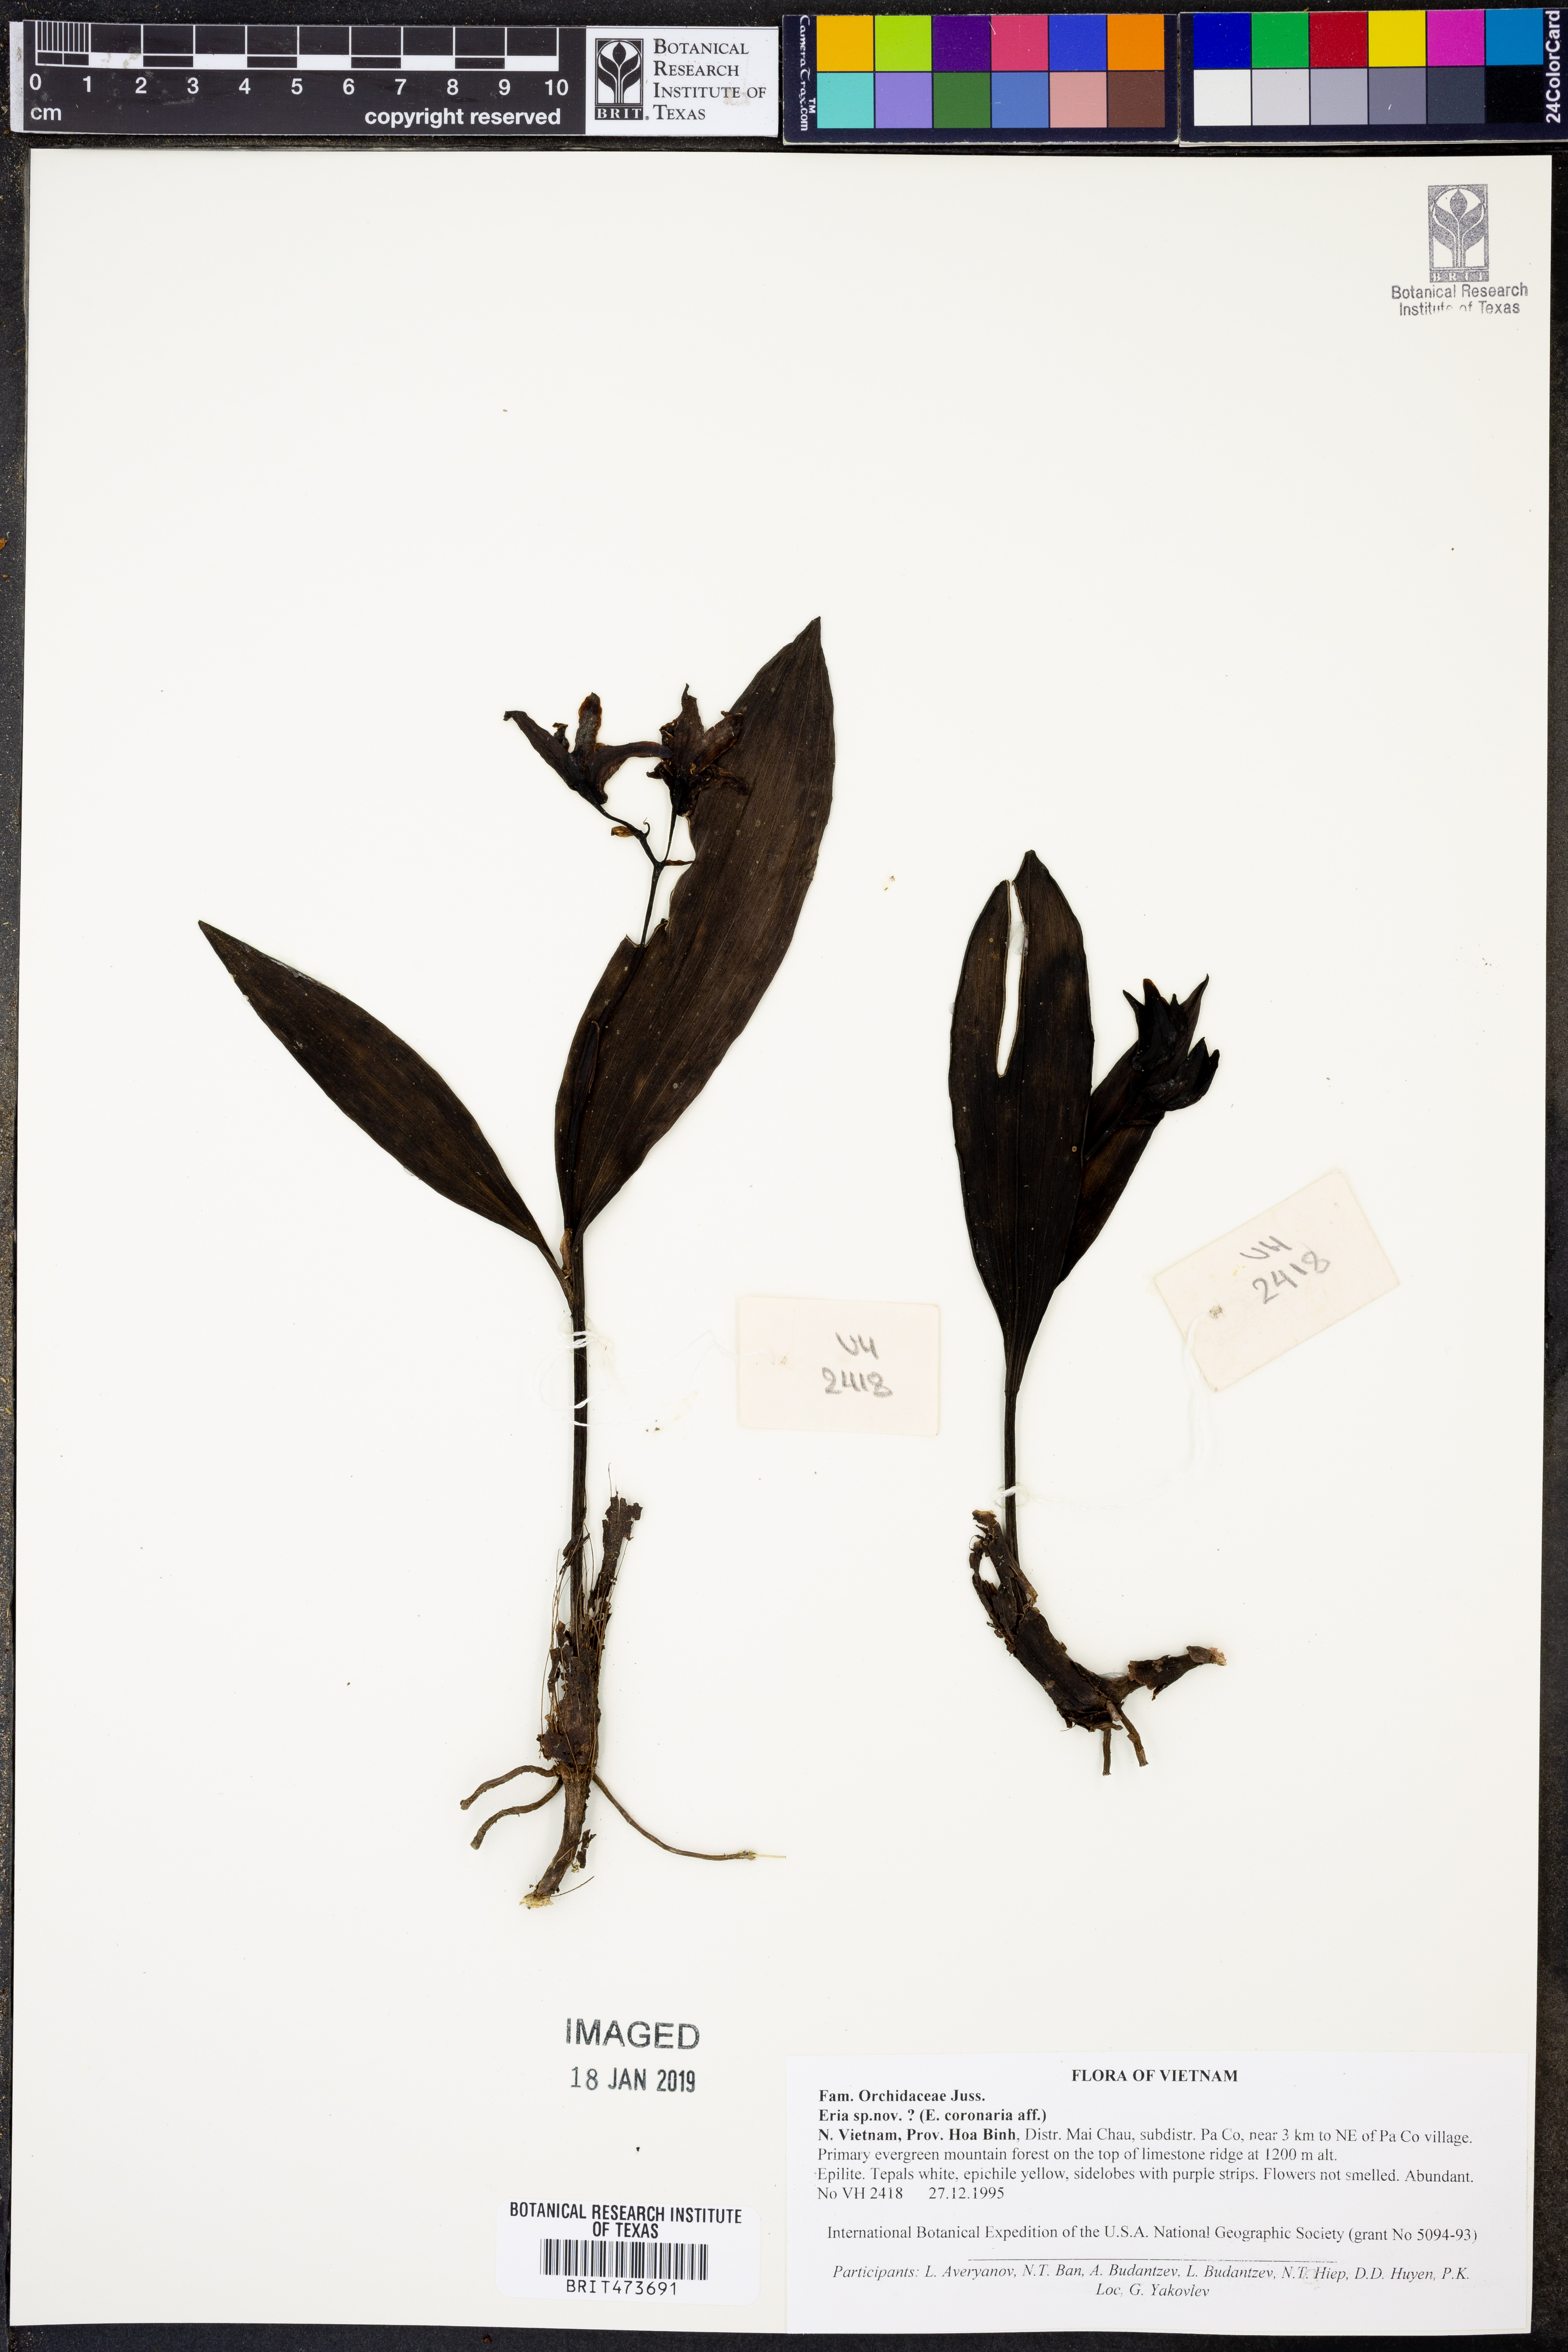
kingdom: Plantae
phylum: Tracheophyta
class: Liliopsida
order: Asparagales
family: Orchidaceae
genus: Eria
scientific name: Eria
